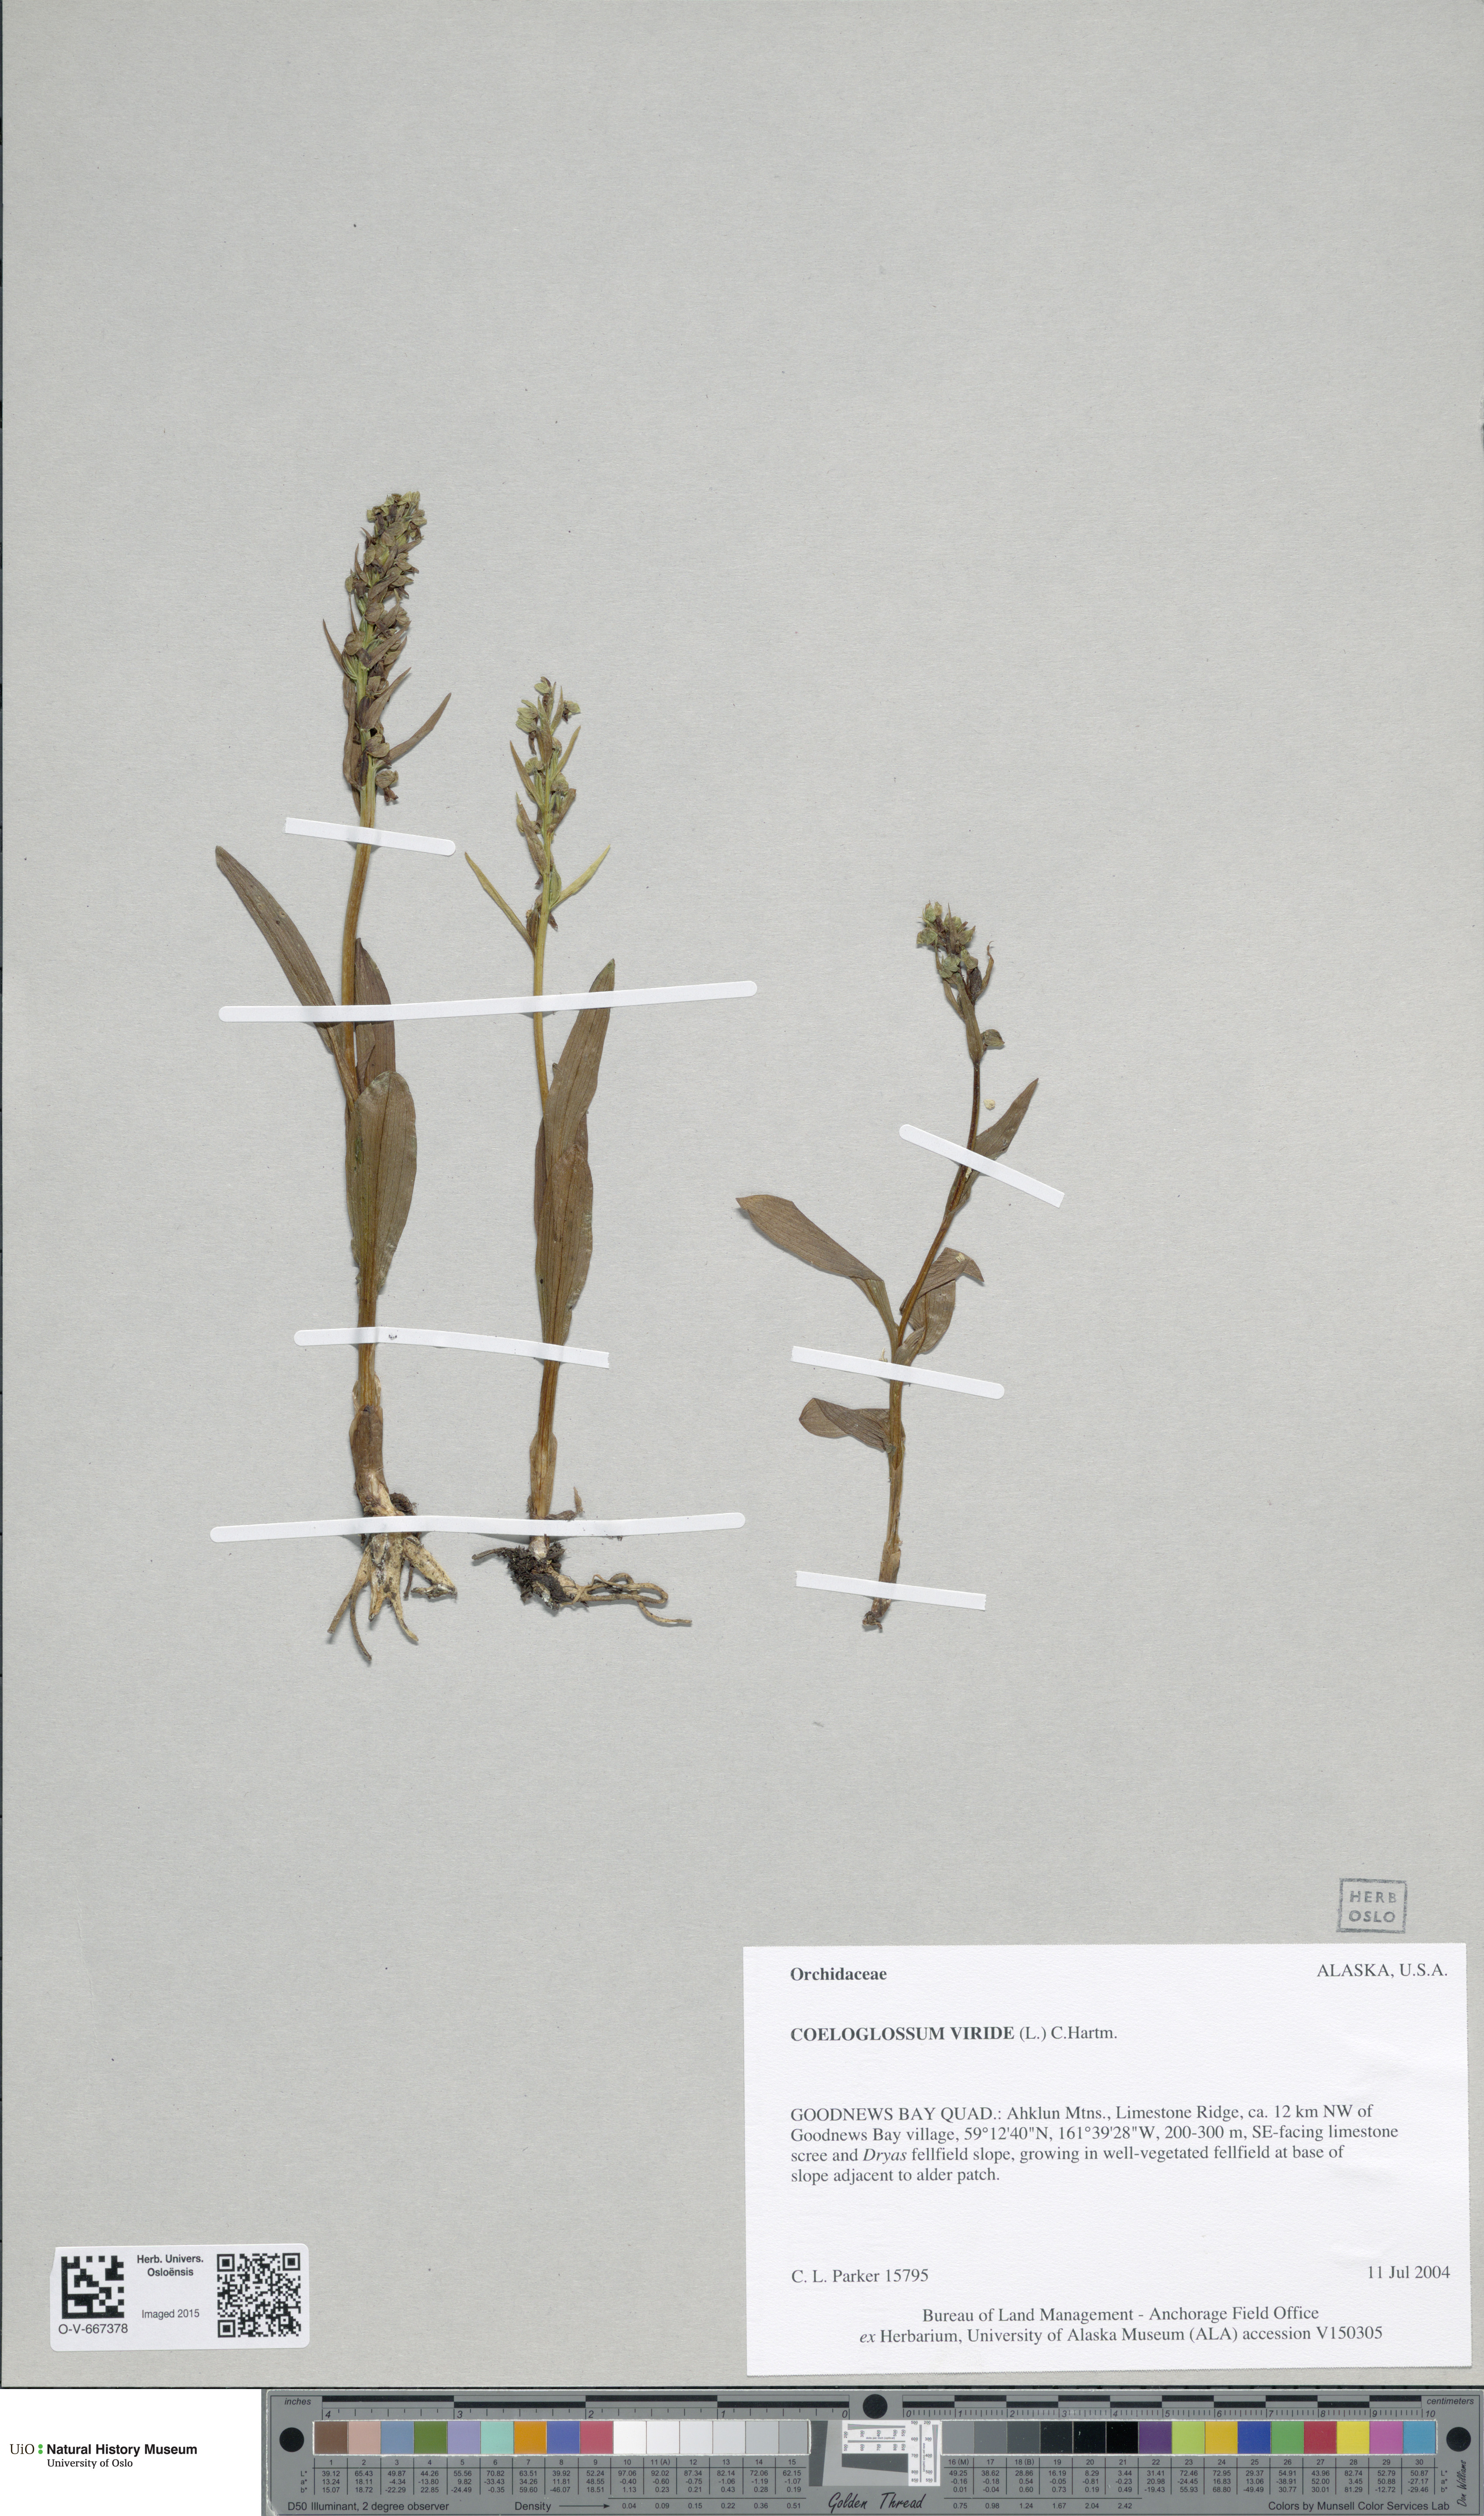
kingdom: Plantae
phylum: Tracheophyta
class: Liliopsida
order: Asparagales
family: Orchidaceae
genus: Dactylorhiza
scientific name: Dactylorhiza viridis
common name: Longbract frog orchid
